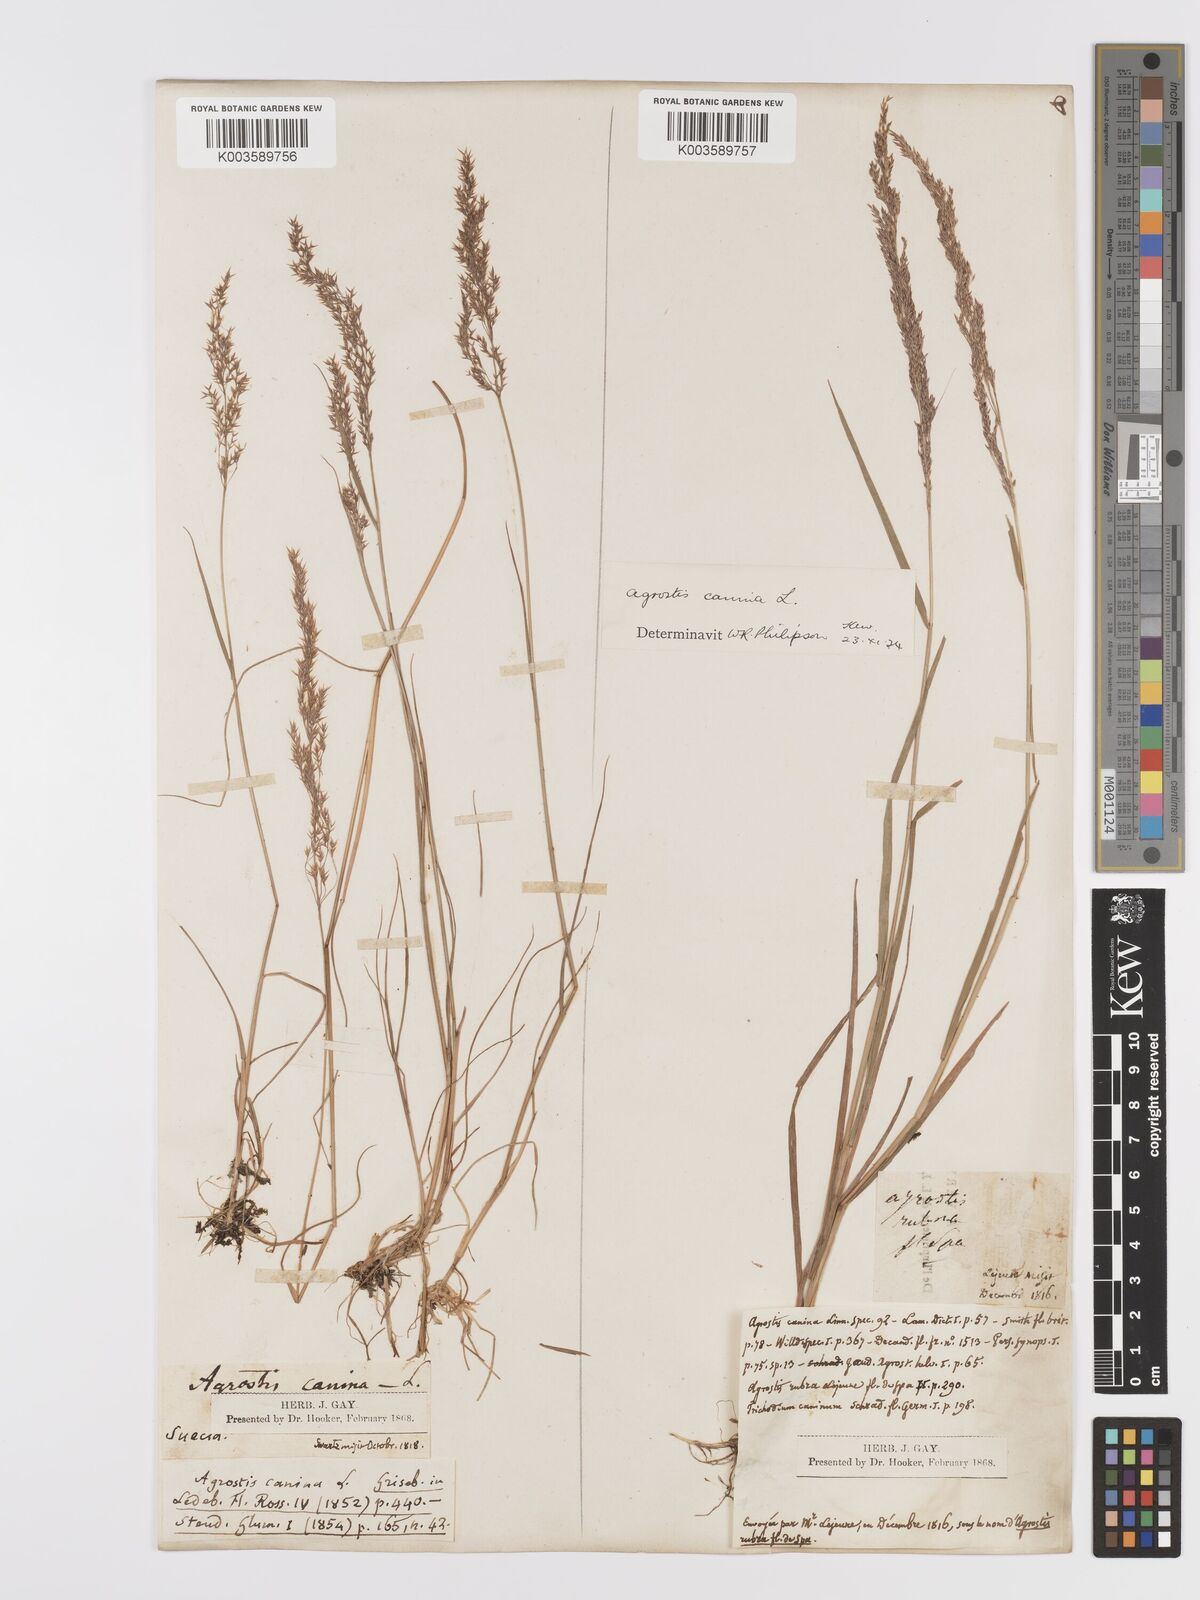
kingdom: Plantae
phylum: Tracheophyta
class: Liliopsida
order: Poales
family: Poaceae
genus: Agrostis
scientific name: Agrostis
